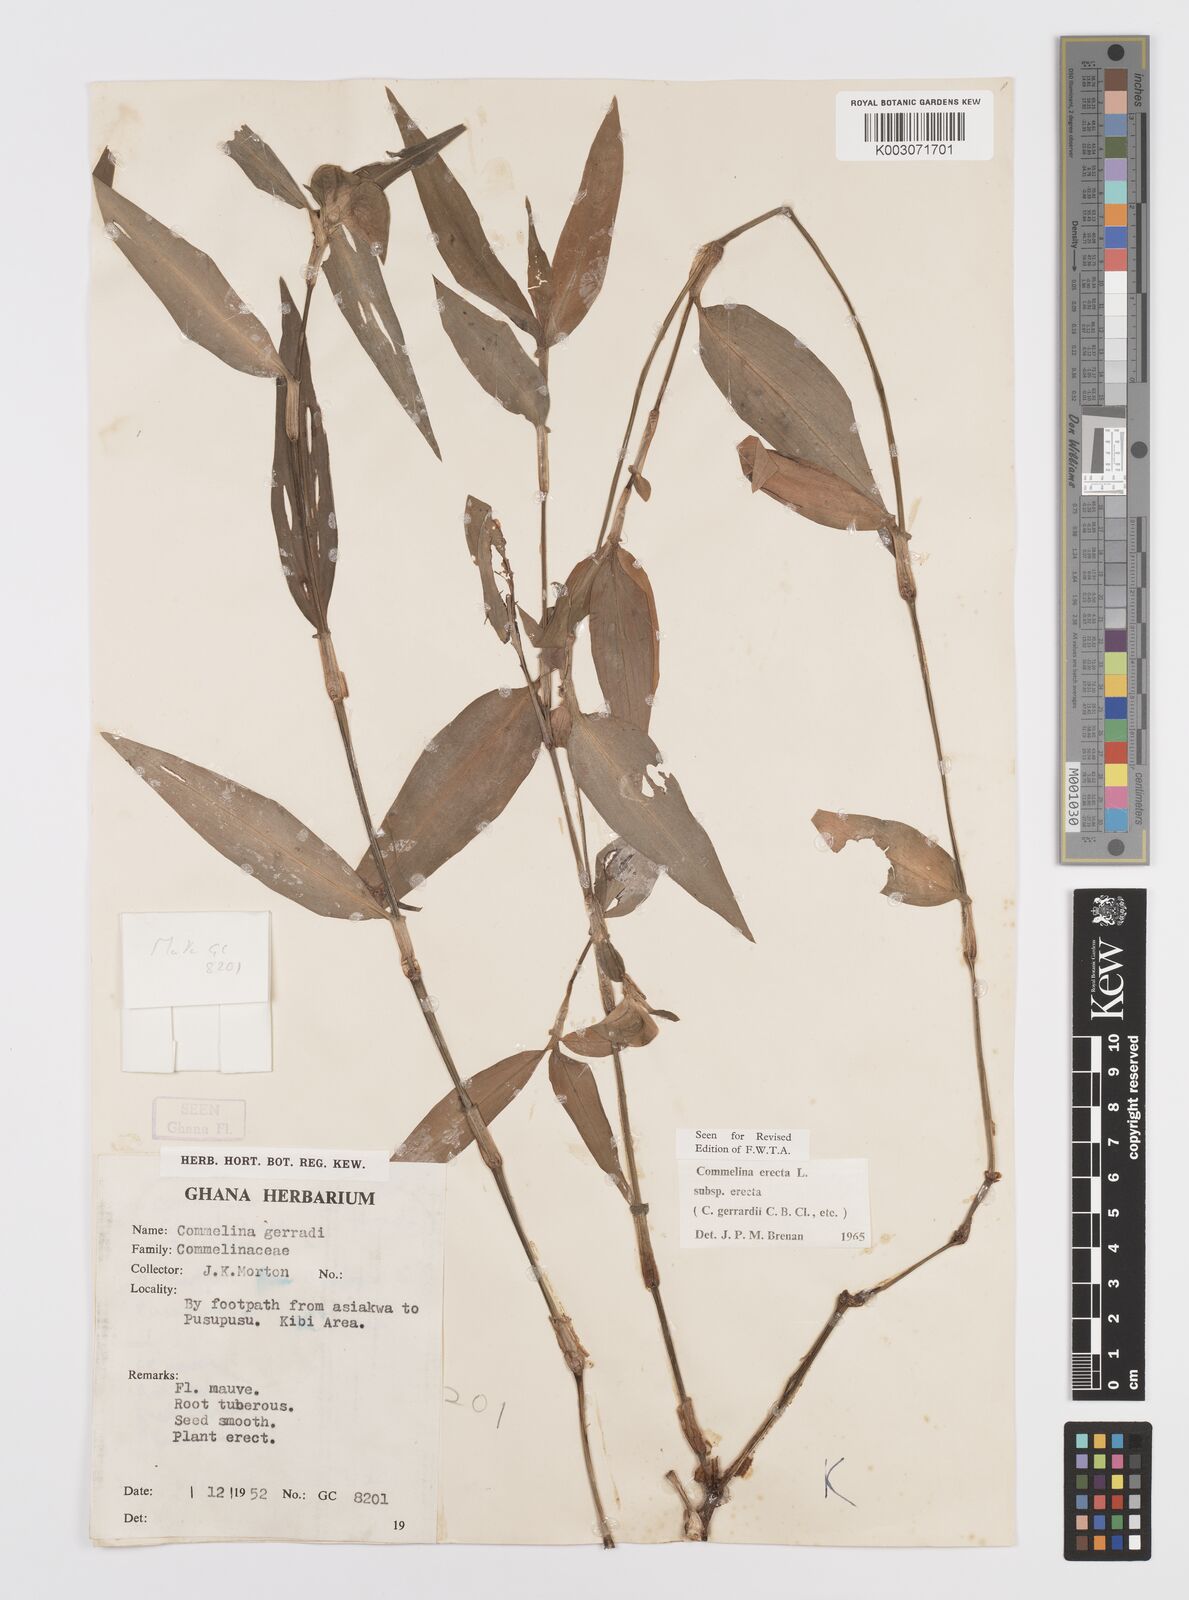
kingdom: Plantae
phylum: Tracheophyta
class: Liliopsida
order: Commelinales
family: Commelinaceae
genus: Commelina
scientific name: Commelina erecta
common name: Blousel blommetjie
